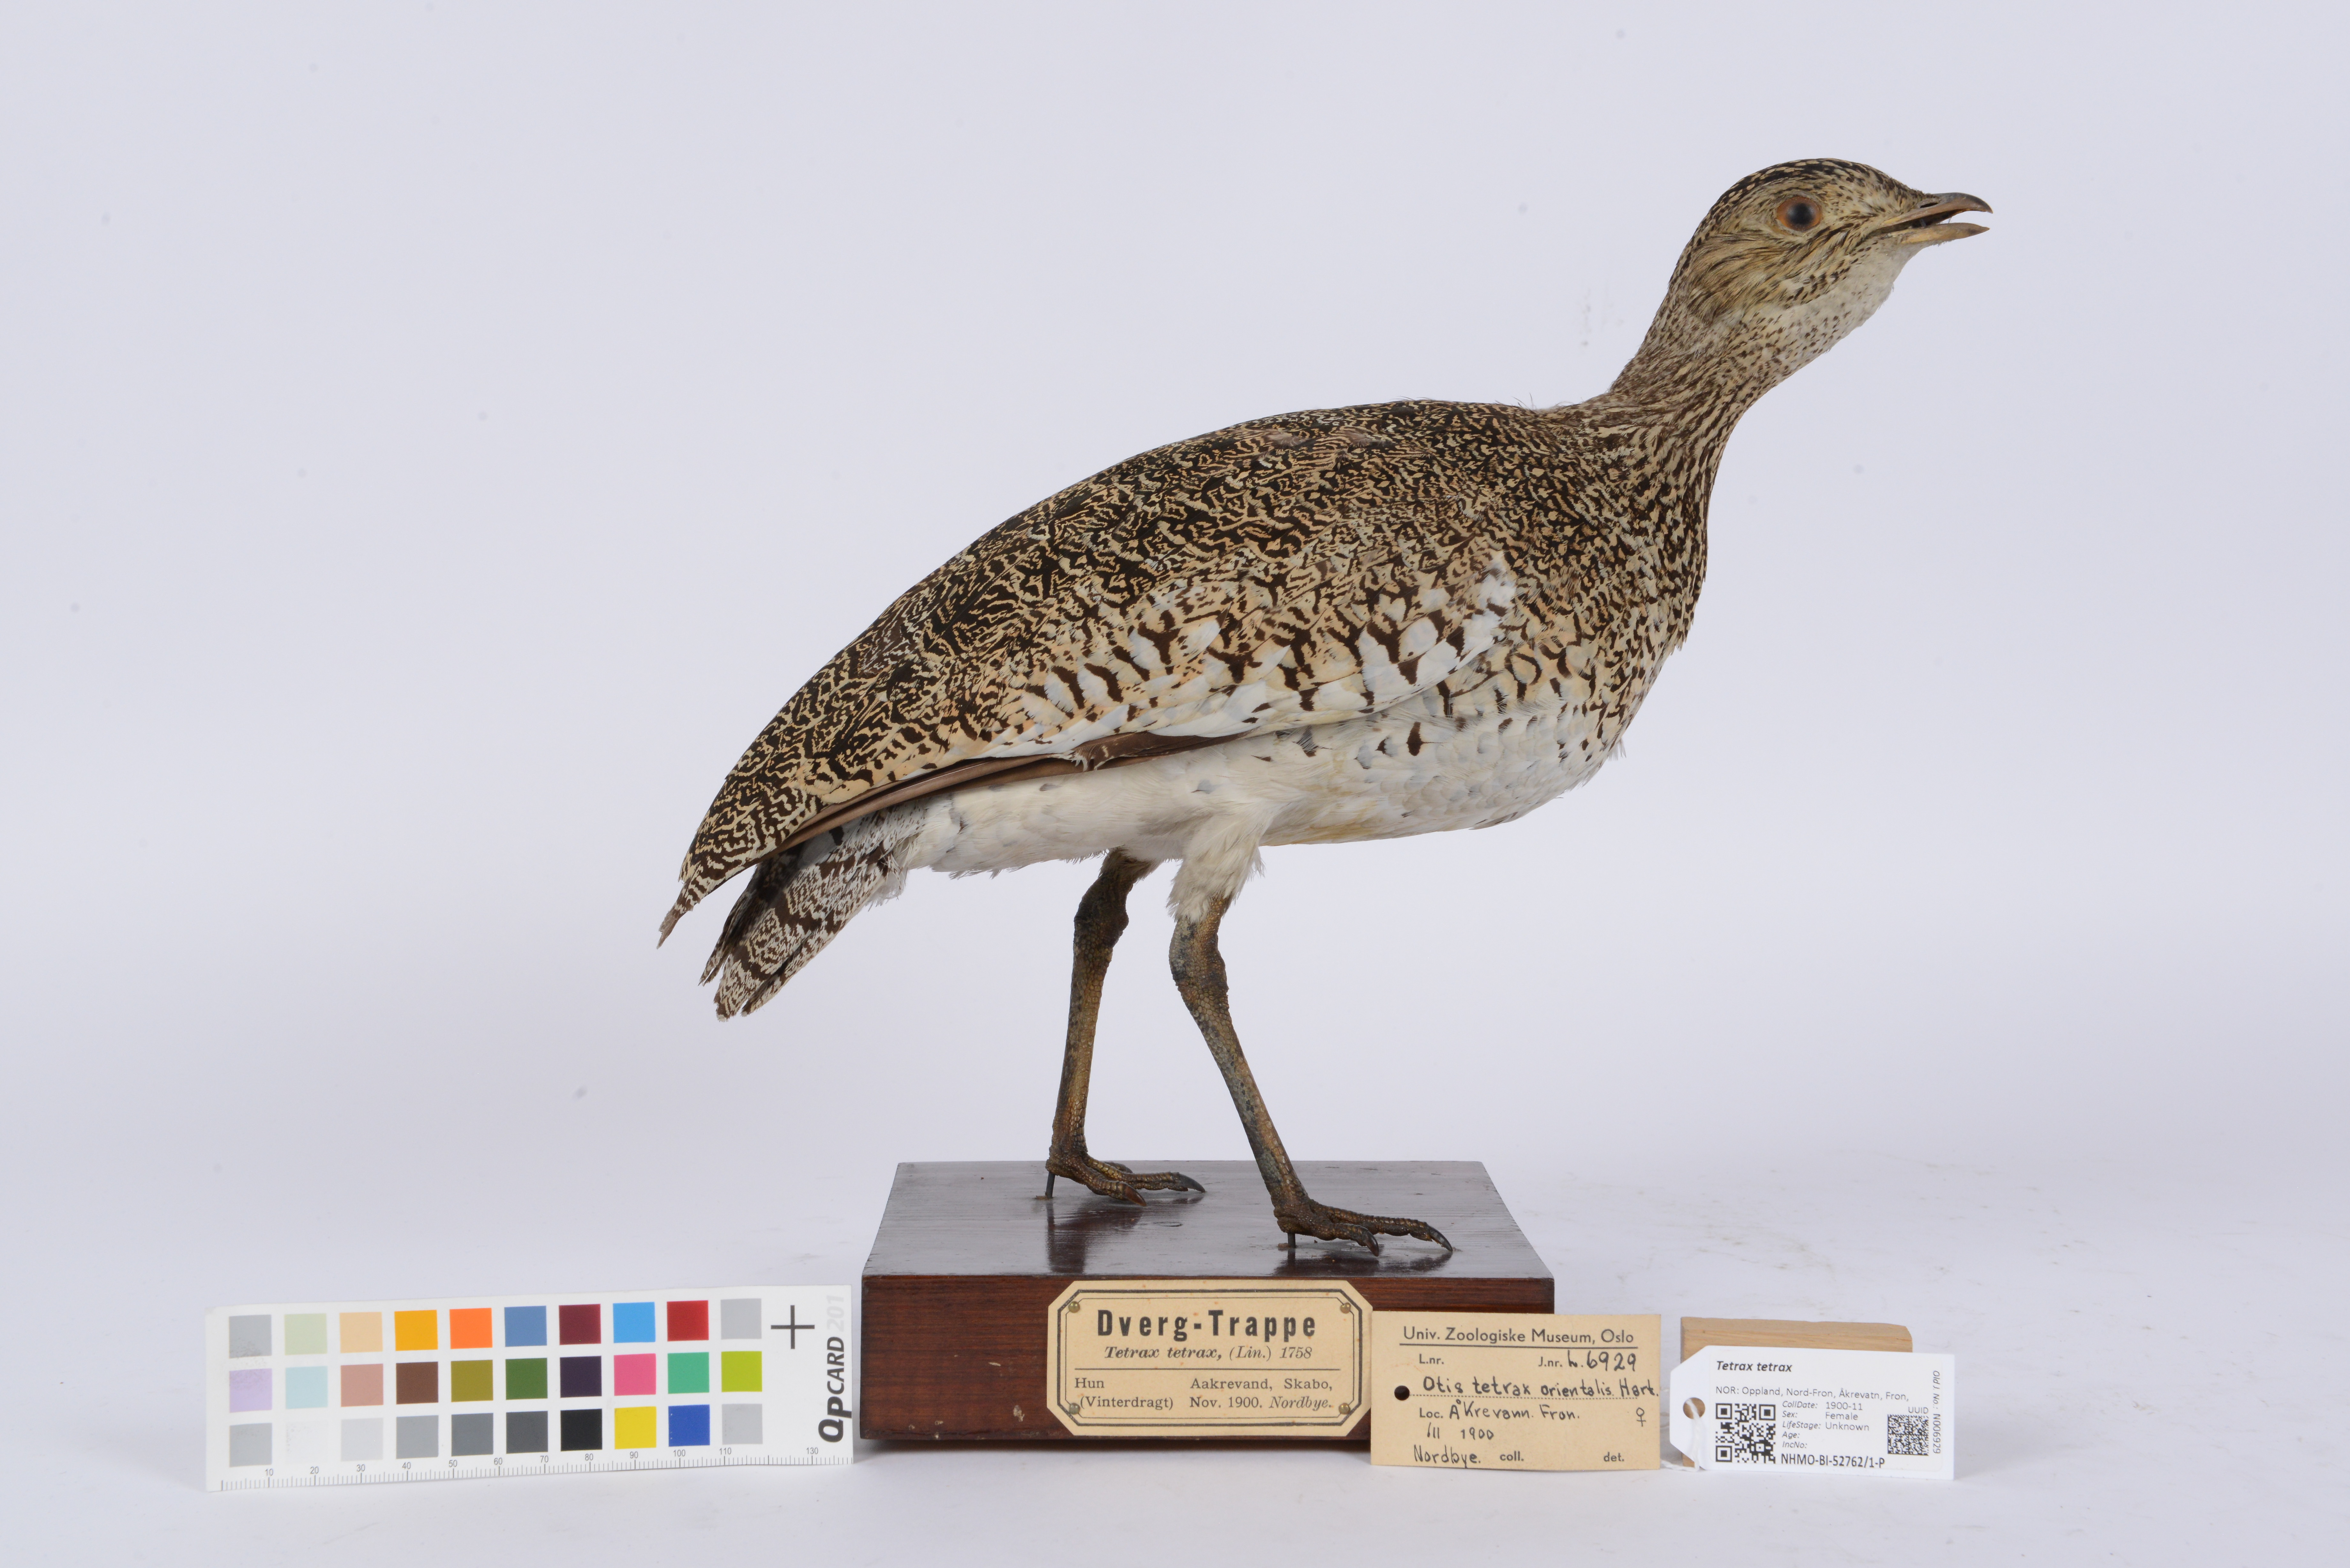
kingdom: Animalia
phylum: Chordata
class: Aves
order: Otidiformes
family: Otididae
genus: Tetrax
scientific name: Tetrax tetrax
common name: Little bustard
